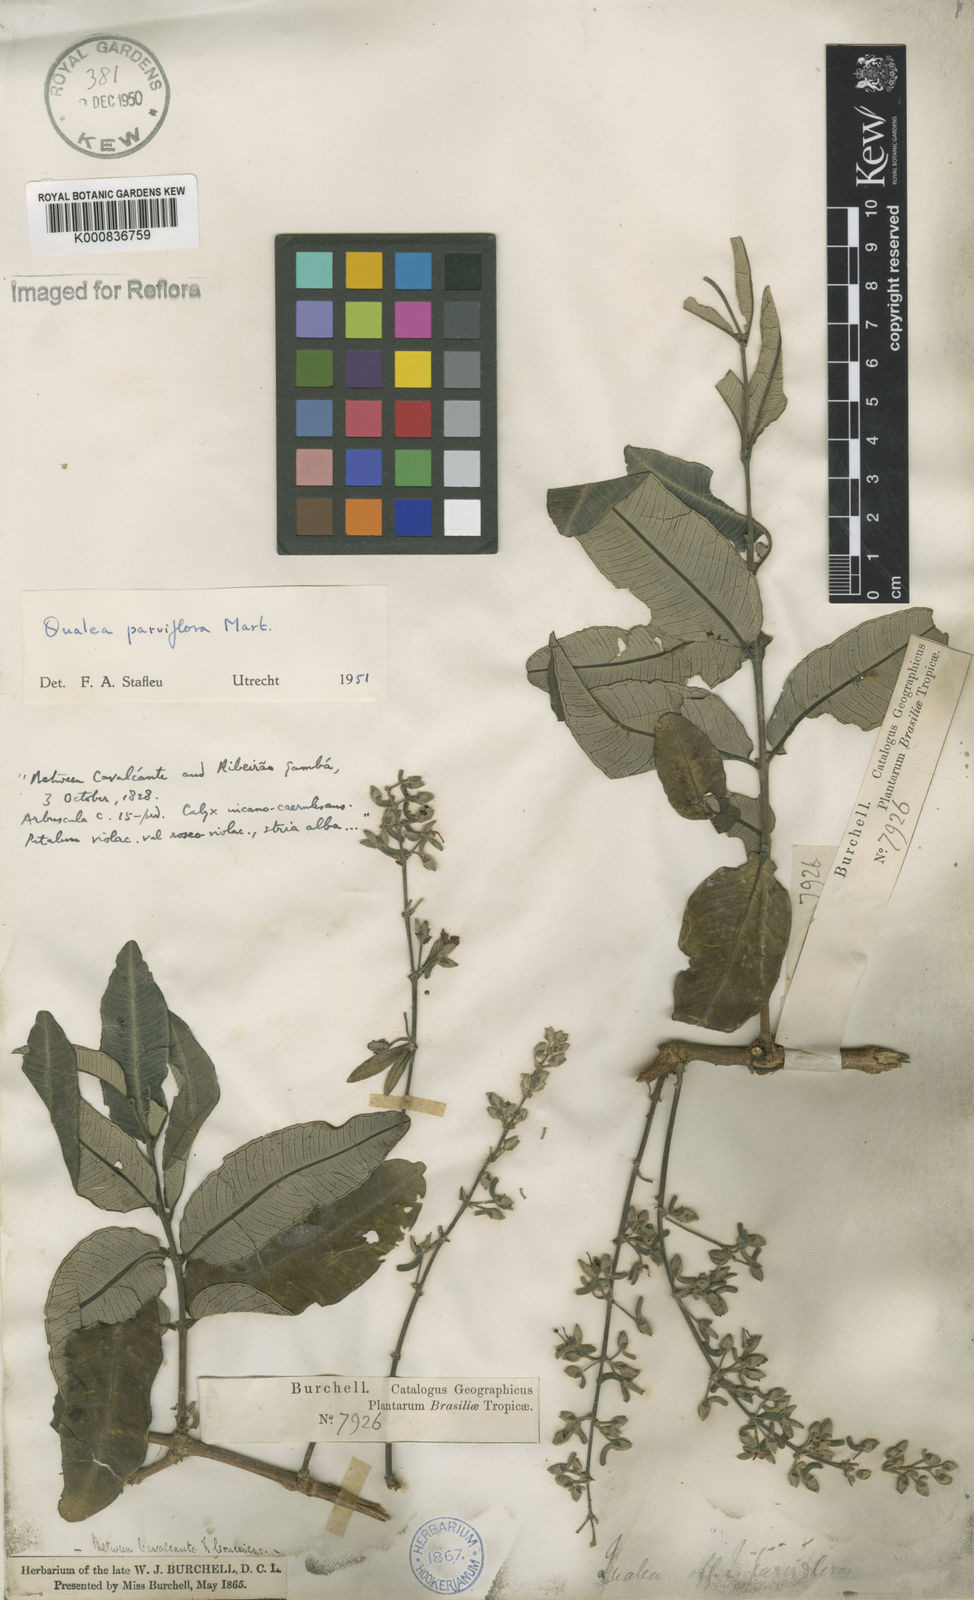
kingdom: Plantae
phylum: Tracheophyta
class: Magnoliopsida
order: Myrtales
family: Vochysiaceae
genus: Qualea
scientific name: Qualea parviflora
